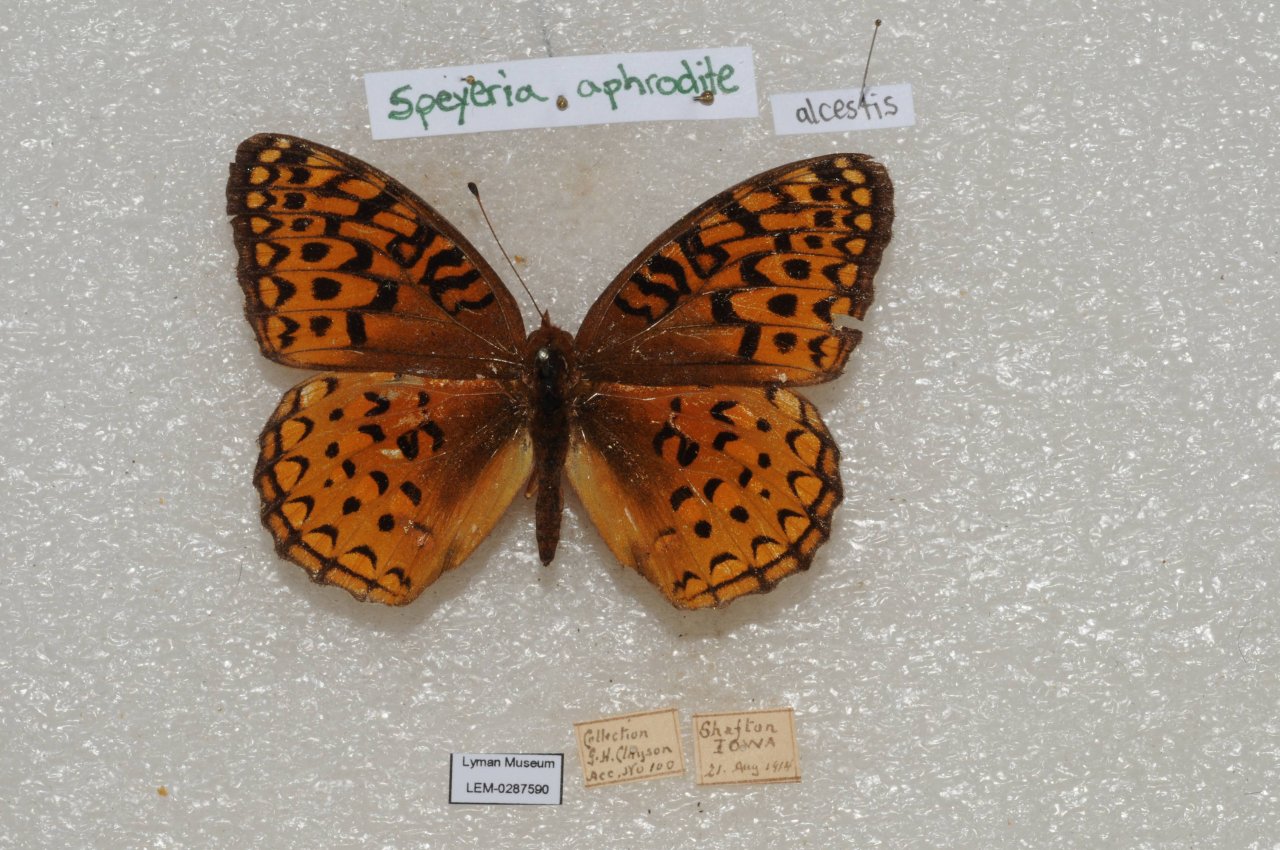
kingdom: Animalia
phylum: Arthropoda
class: Insecta
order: Lepidoptera
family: Nymphalidae
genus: Speyeria
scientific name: Speyeria aphrodite
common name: Aphrodite Fritillary
